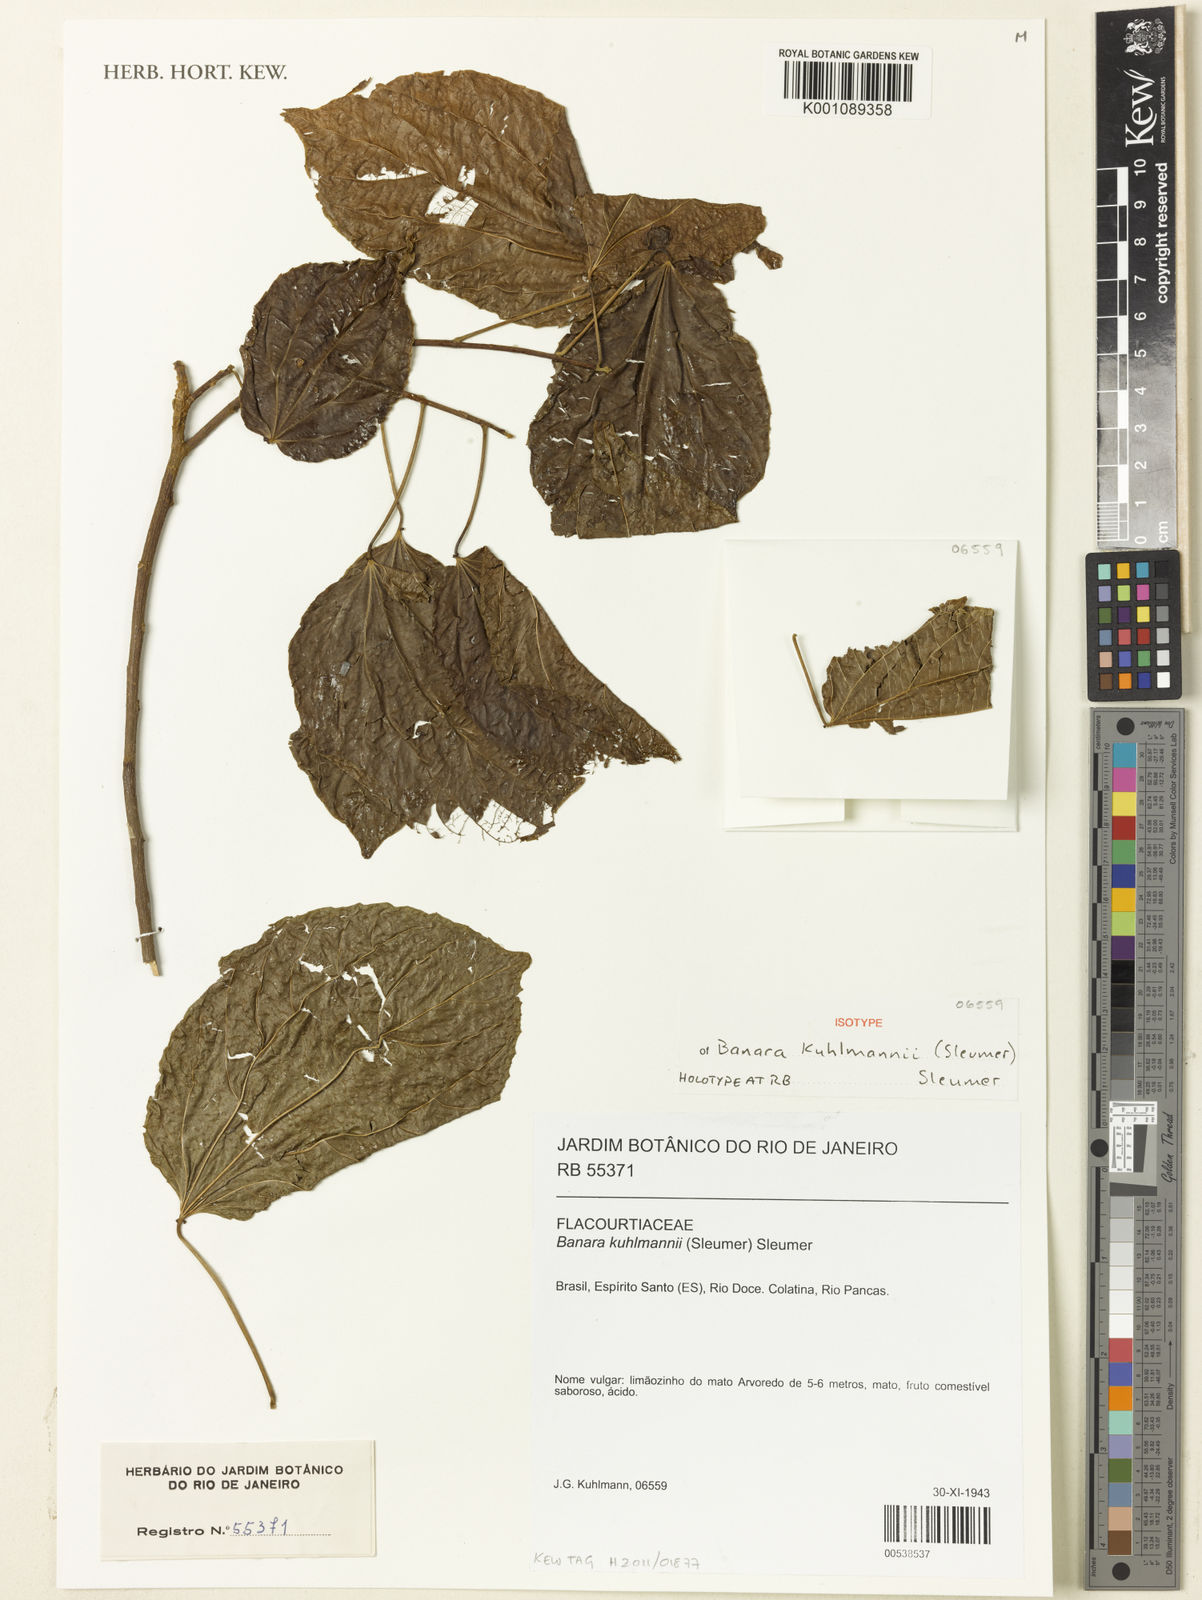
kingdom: Plantae
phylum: Tracheophyta
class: Magnoliopsida
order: Malpighiales
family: Salicaceae
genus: Macrothumia
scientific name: Macrothumia kuhlmannii
